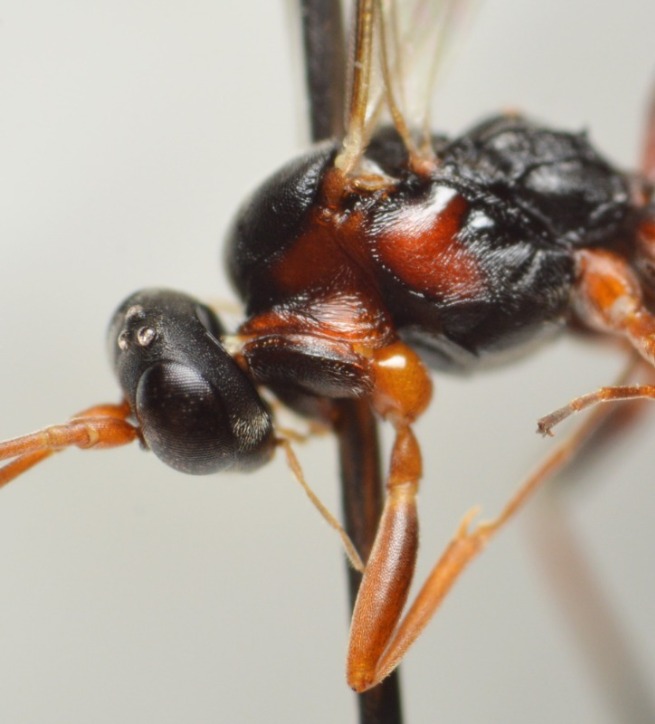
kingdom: Animalia
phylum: Arthropoda
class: Insecta
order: Hymenoptera
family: Ichneumonidae
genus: Hemiteles
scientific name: Hemiteles bipunctator
